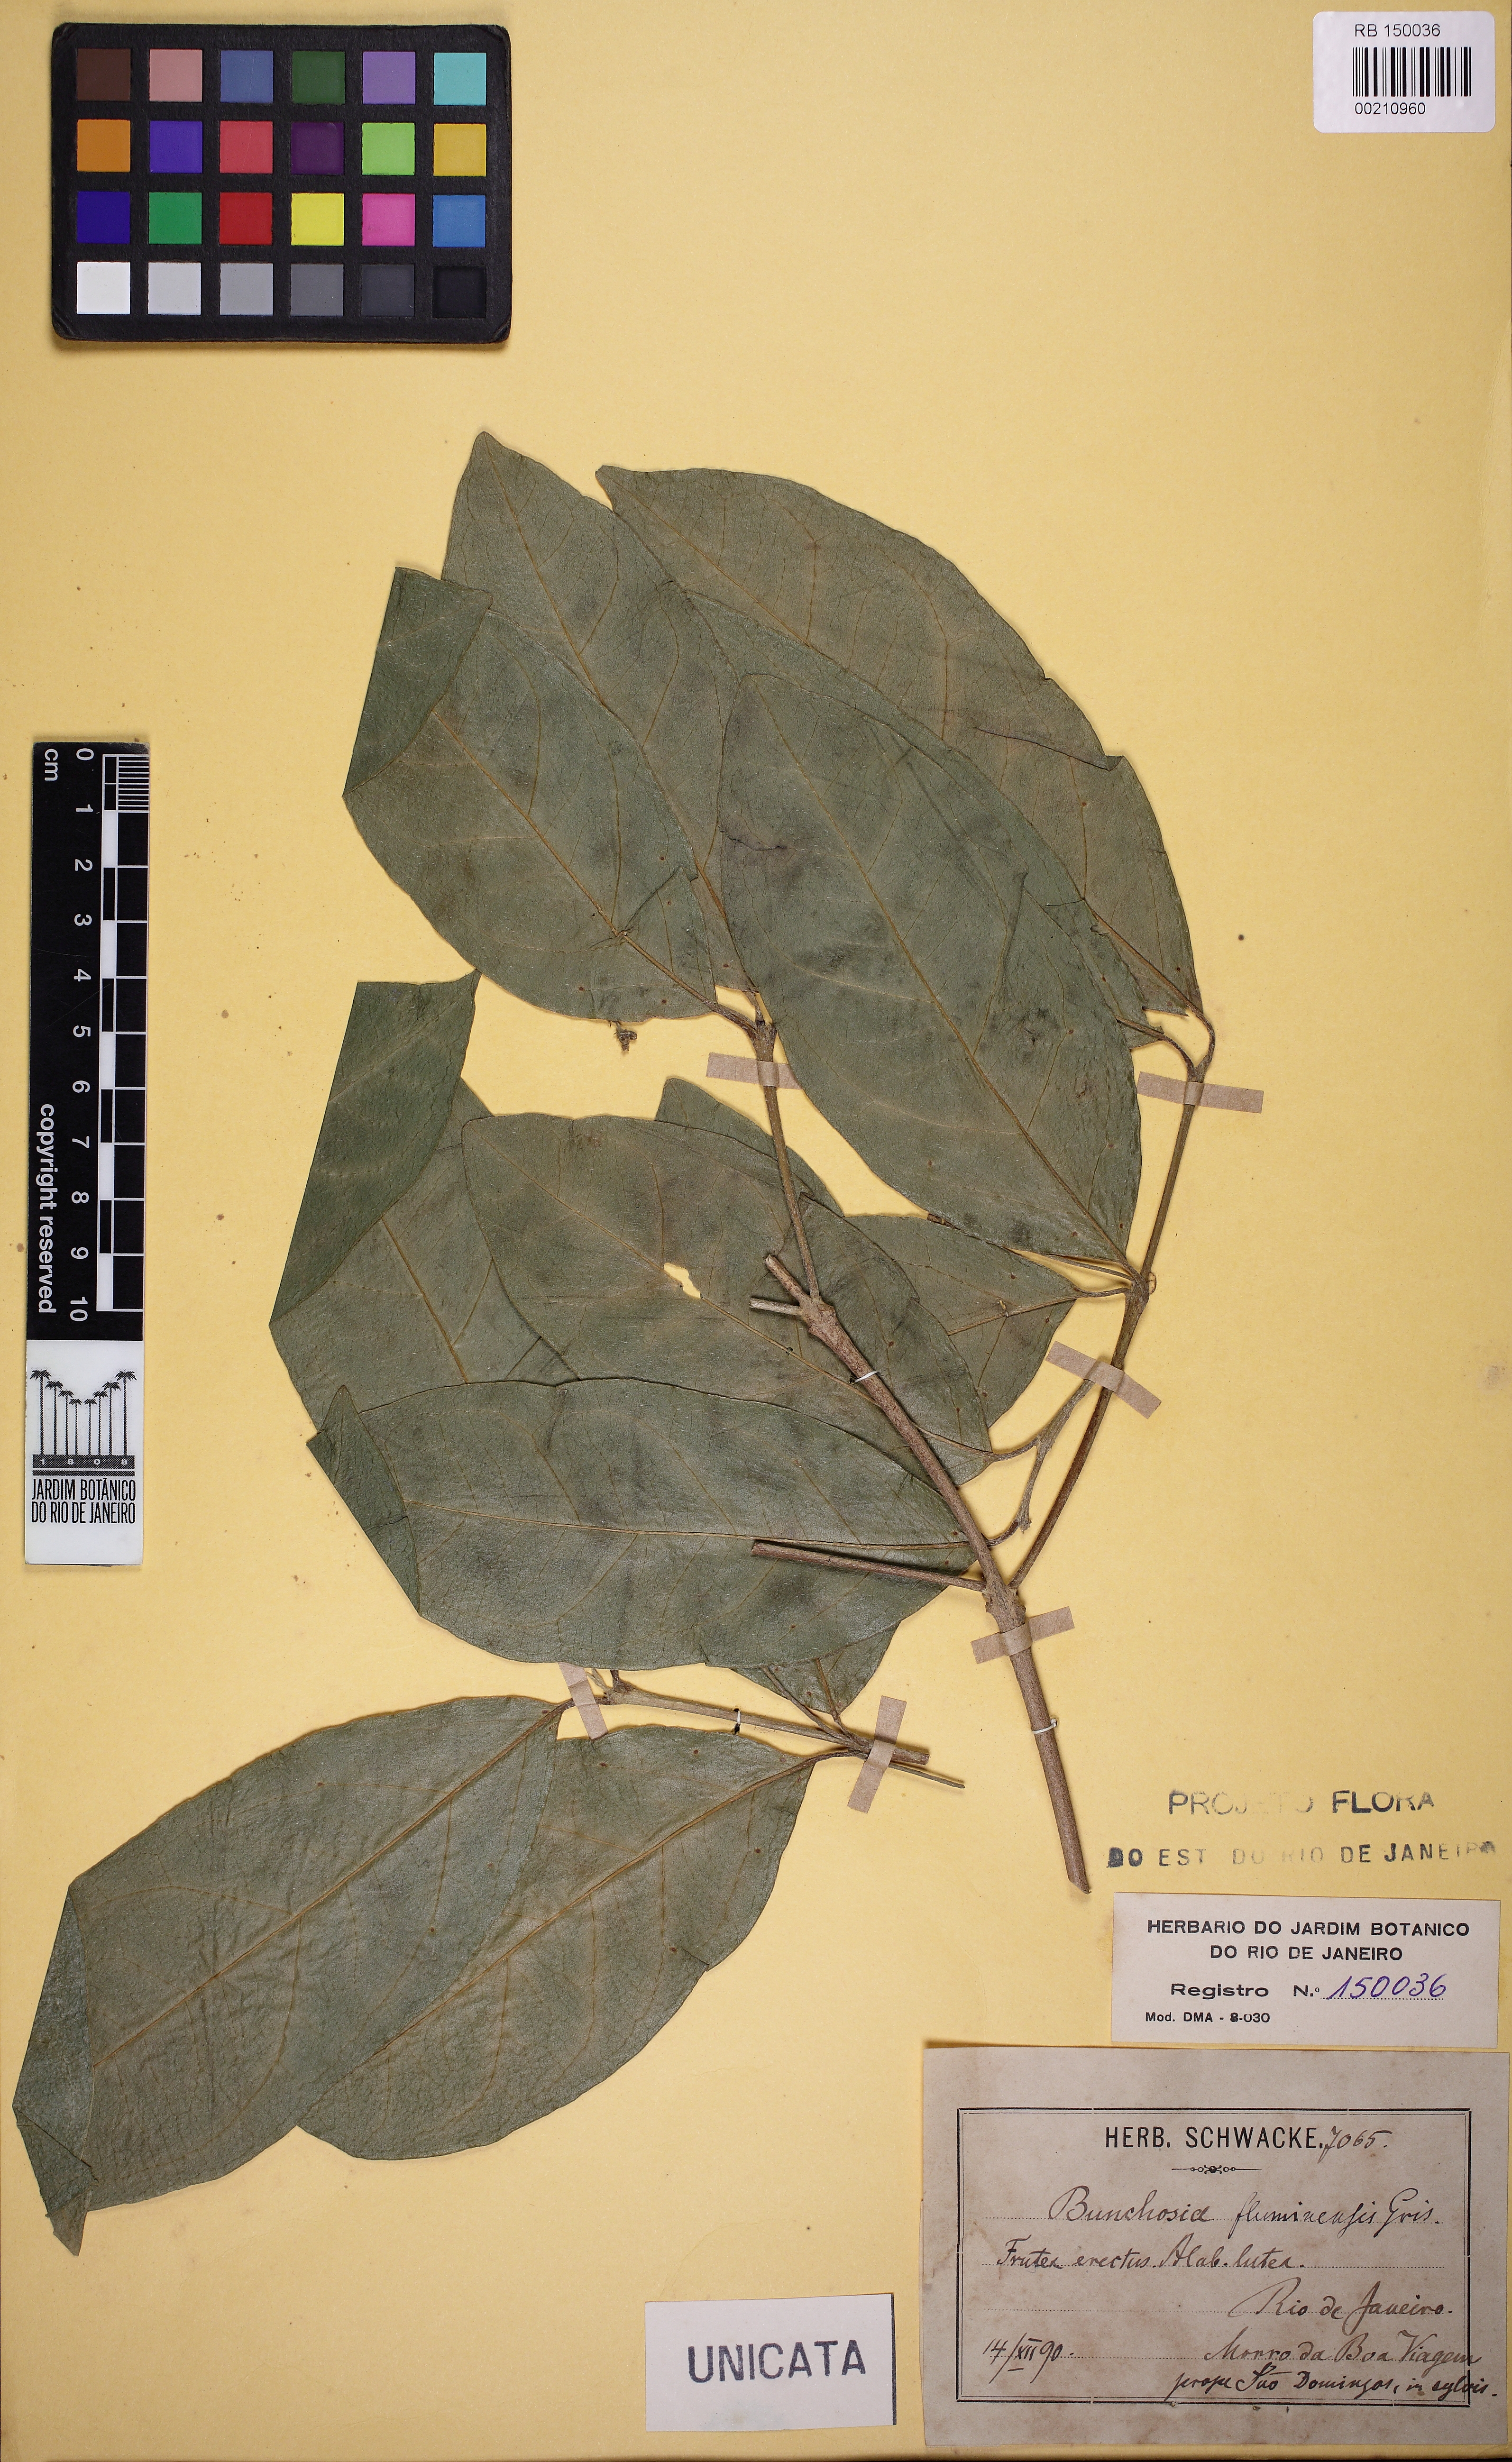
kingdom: Plantae
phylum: Tracheophyta
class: Magnoliopsida
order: Malpighiales
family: Malpighiaceae
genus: Bunchosia
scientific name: Bunchosia maritima
